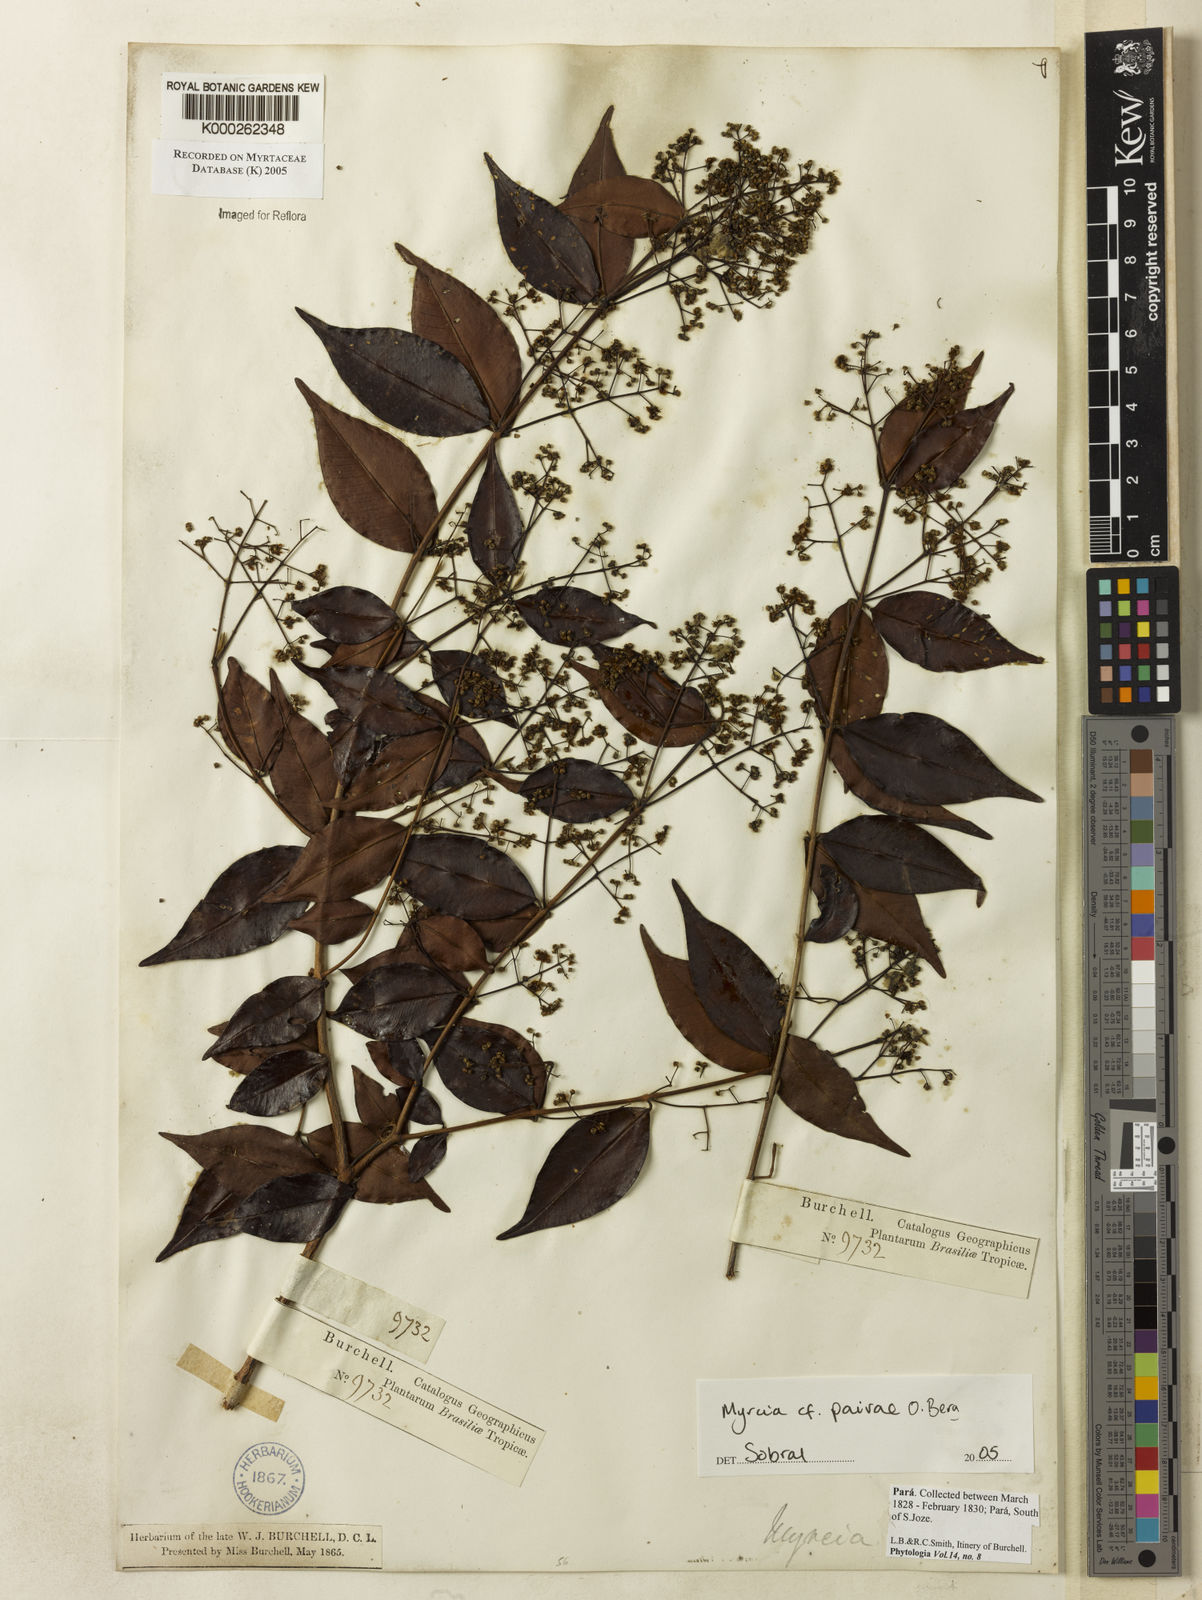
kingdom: Plantae
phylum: Tracheophyta
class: Magnoliopsida
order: Myrtales
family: Myrtaceae
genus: Myrcia
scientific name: Myrcia paivae
